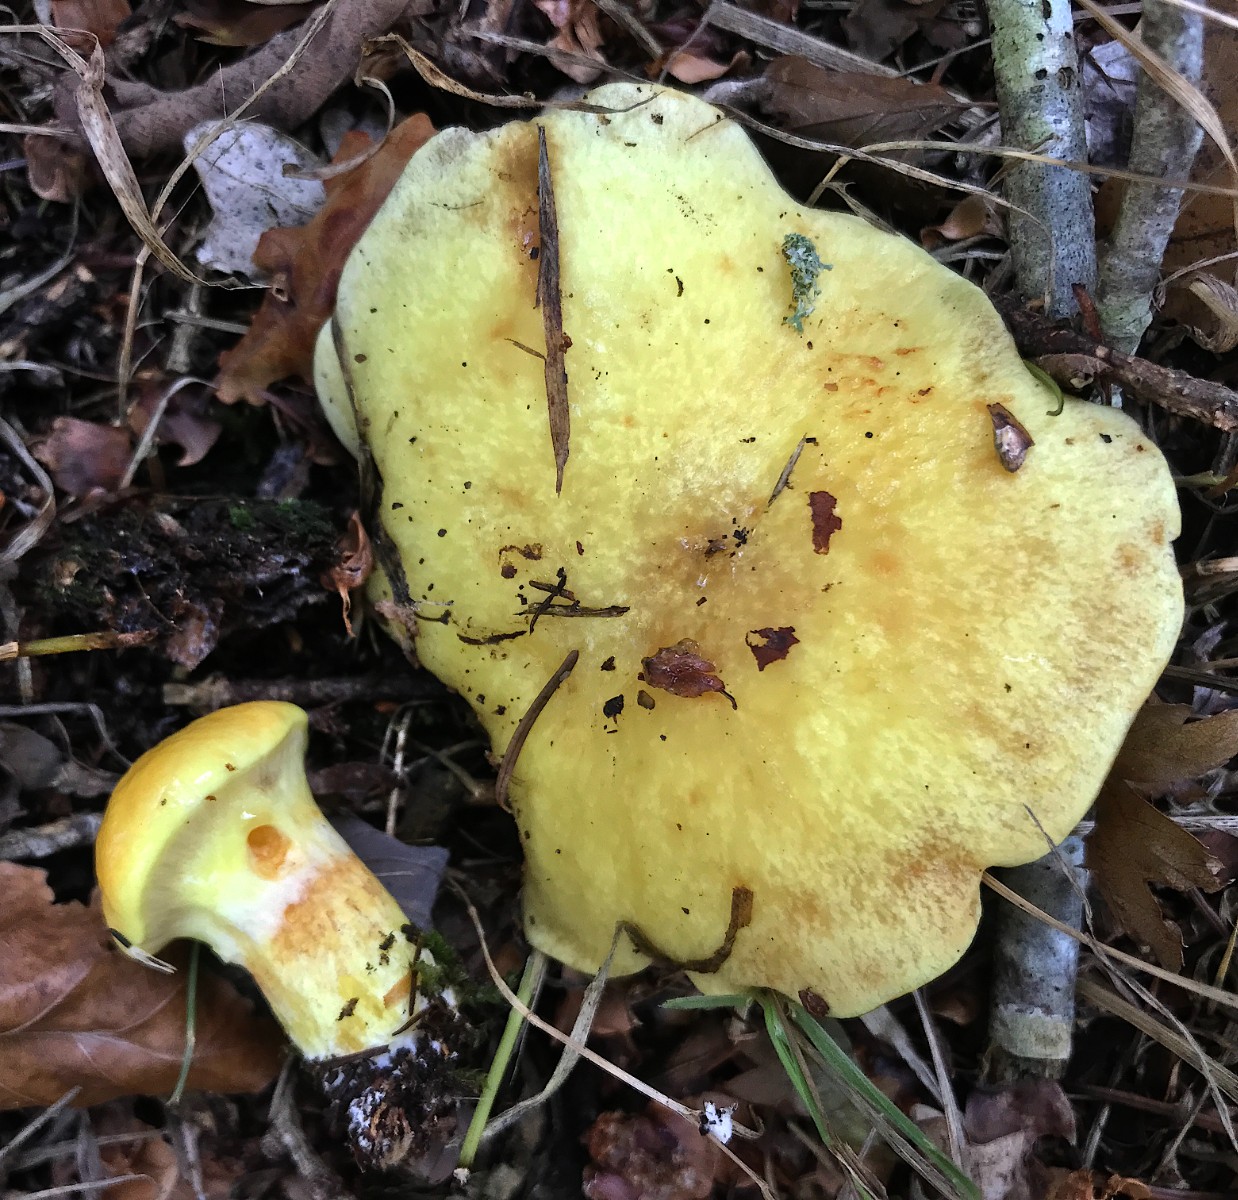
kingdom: Fungi
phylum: Basidiomycota
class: Agaricomycetes
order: Boletales
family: Suillaceae
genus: Suillus
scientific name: Suillus grevillei
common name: lærke-slimrørhat
